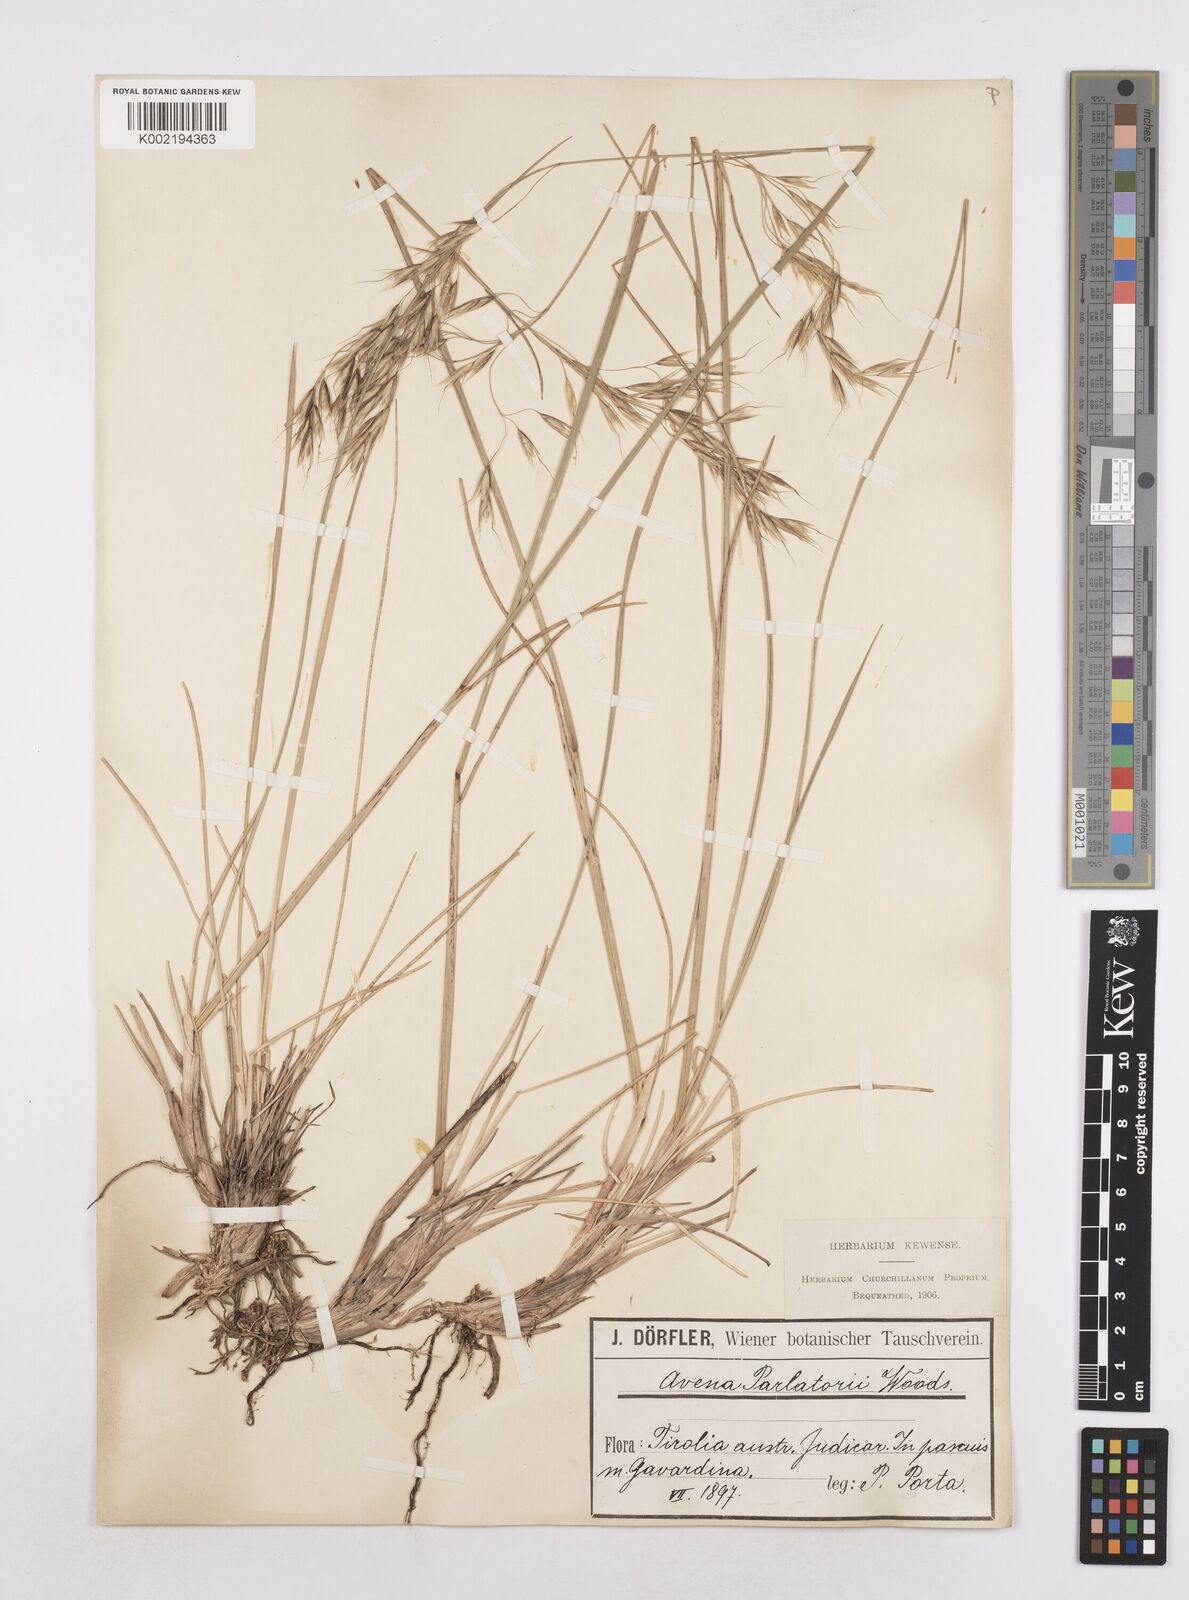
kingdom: Plantae
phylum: Tracheophyta
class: Liliopsida
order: Poales
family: Poaceae
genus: Helictotrichon
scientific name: Helictotrichon parlatorei
